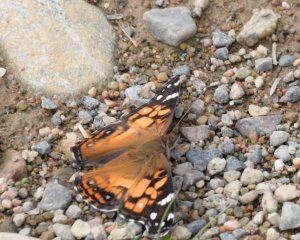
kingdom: Animalia
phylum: Arthropoda
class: Insecta
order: Lepidoptera
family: Nymphalidae
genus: Vanessa
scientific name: Vanessa virginiensis
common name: American Lady
